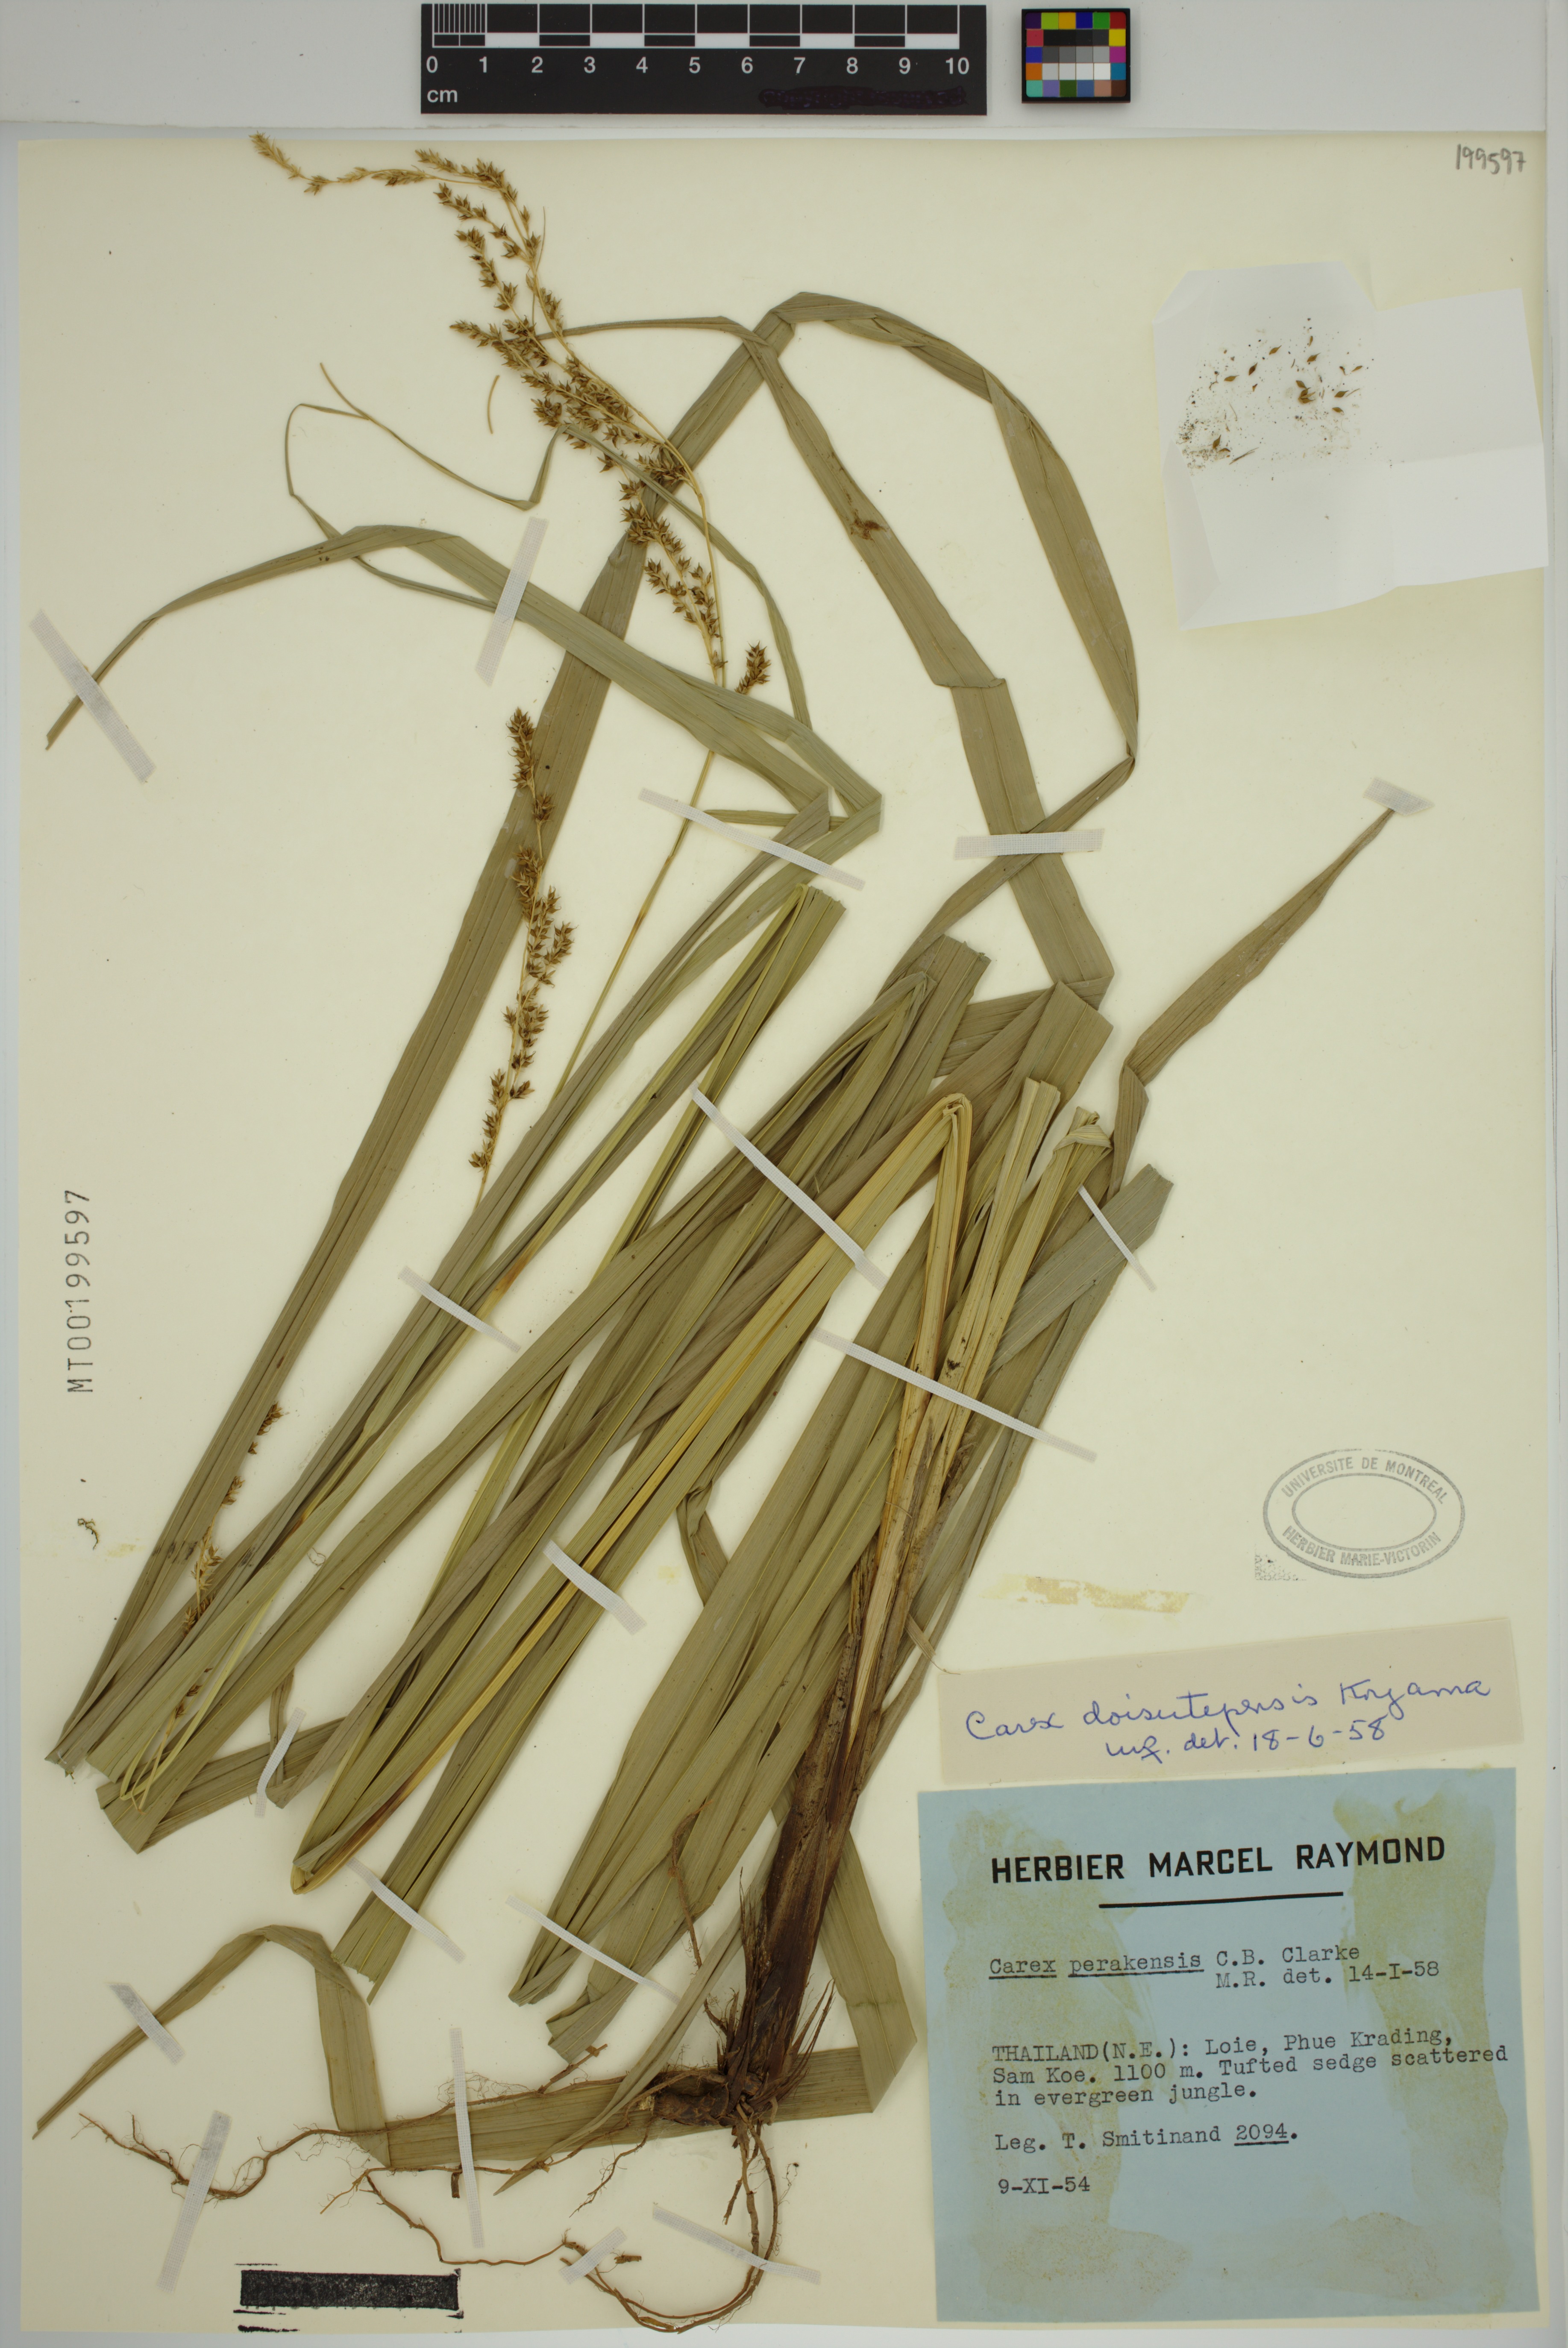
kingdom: Plantae
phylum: Tracheophyta
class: Liliopsida
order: Poales
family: Cyperaceae
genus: Carex
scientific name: Carex doisutepensis
